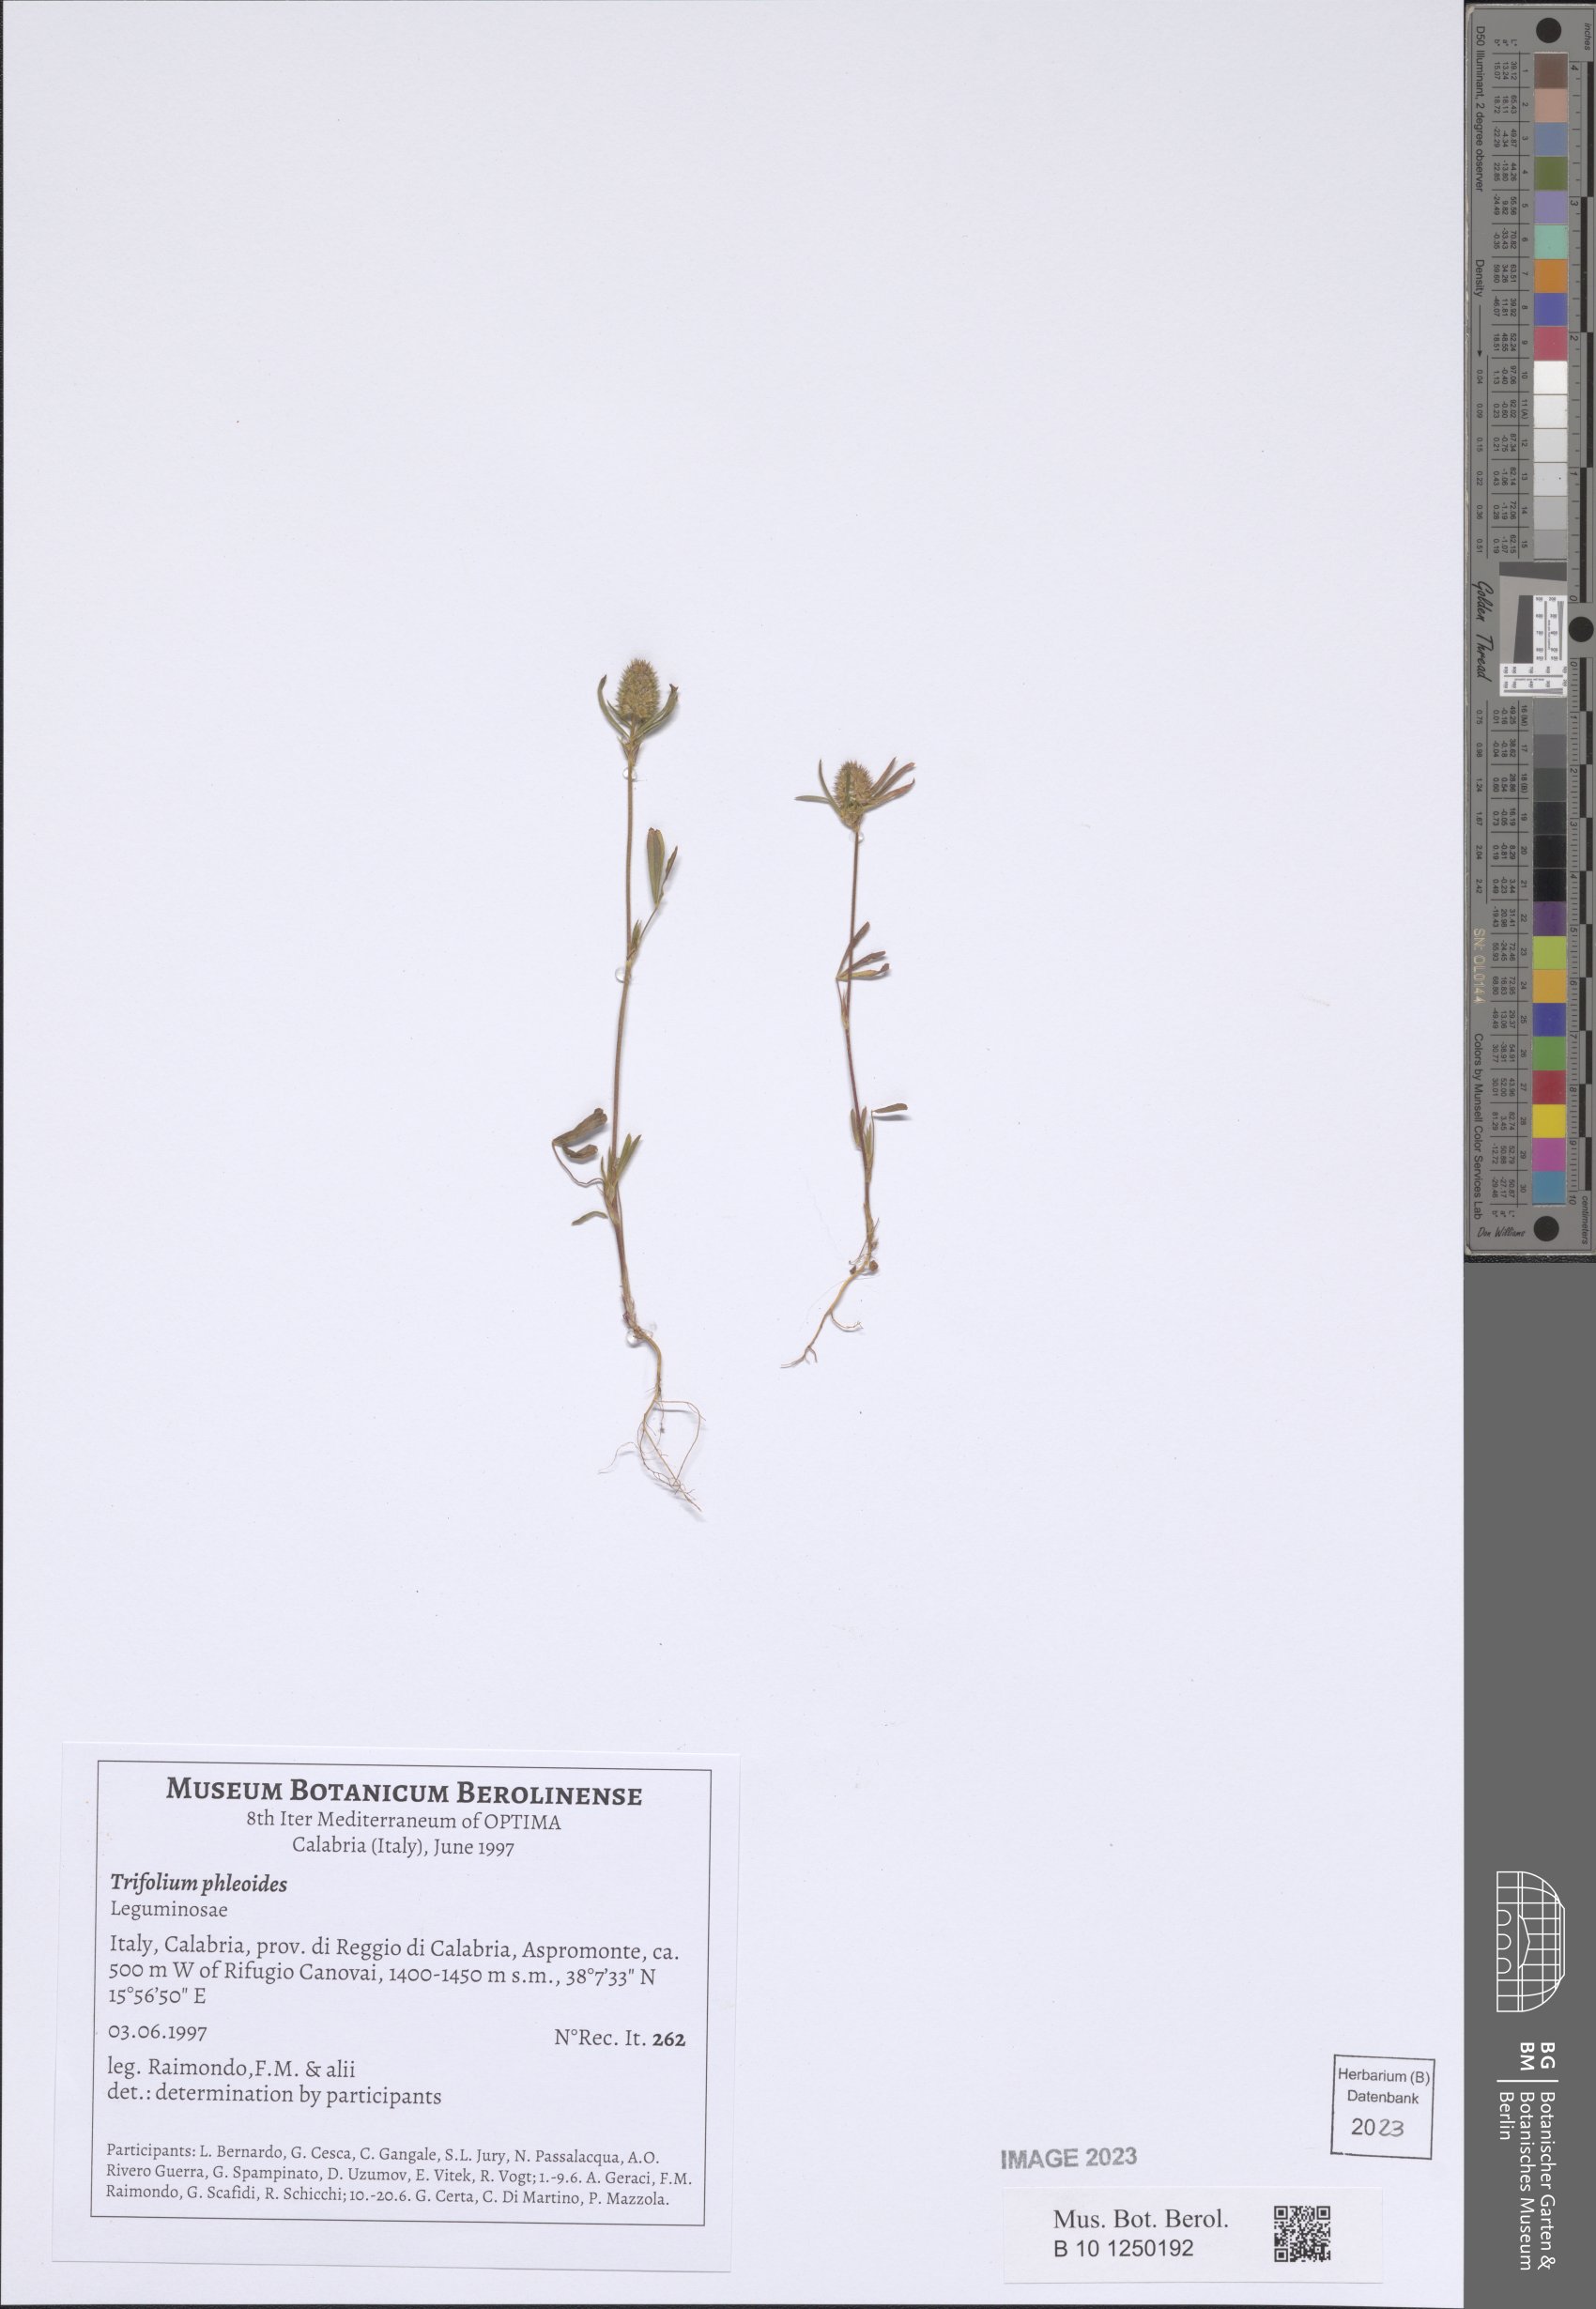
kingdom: Plantae
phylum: Tracheophyta
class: Magnoliopsida
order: Fabales
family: Fabaceae
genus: Trifolium
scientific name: Trifolium phleoides
